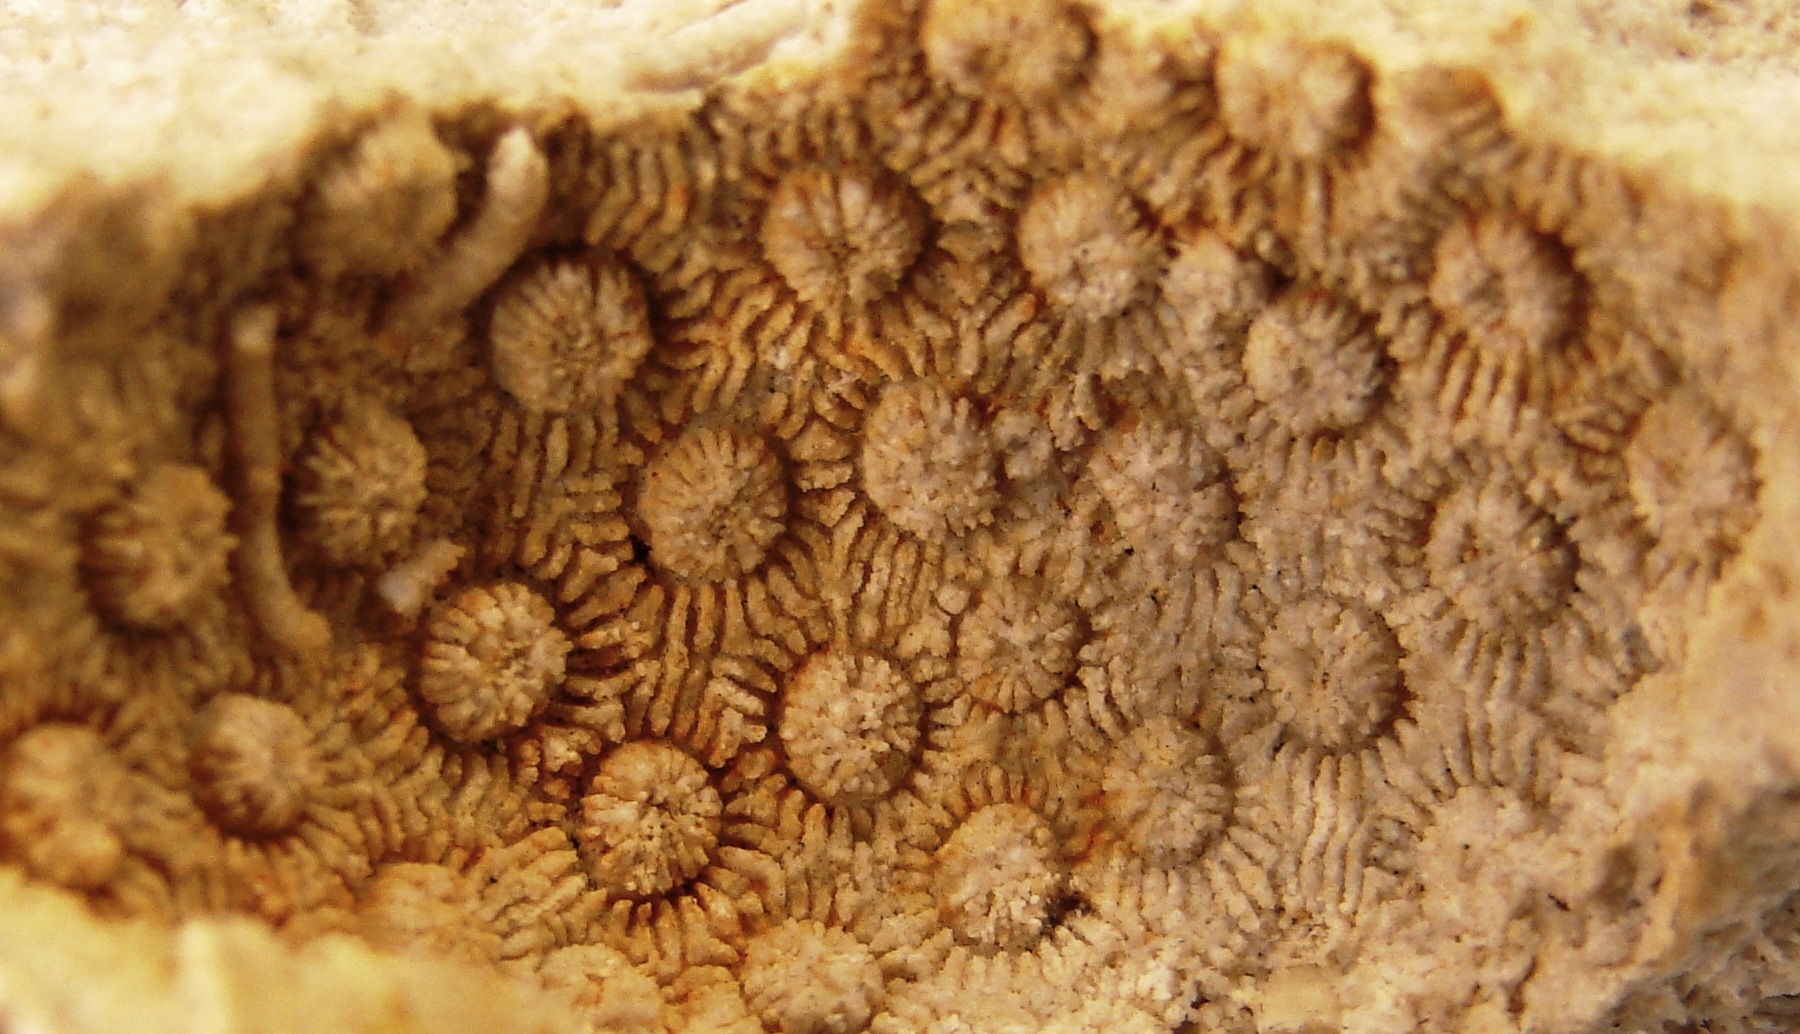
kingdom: Animalia
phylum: Cnidaria
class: Anthozoa
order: Scleractinia
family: Merulinidae
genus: Orbicella
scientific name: Orbicella rotula
